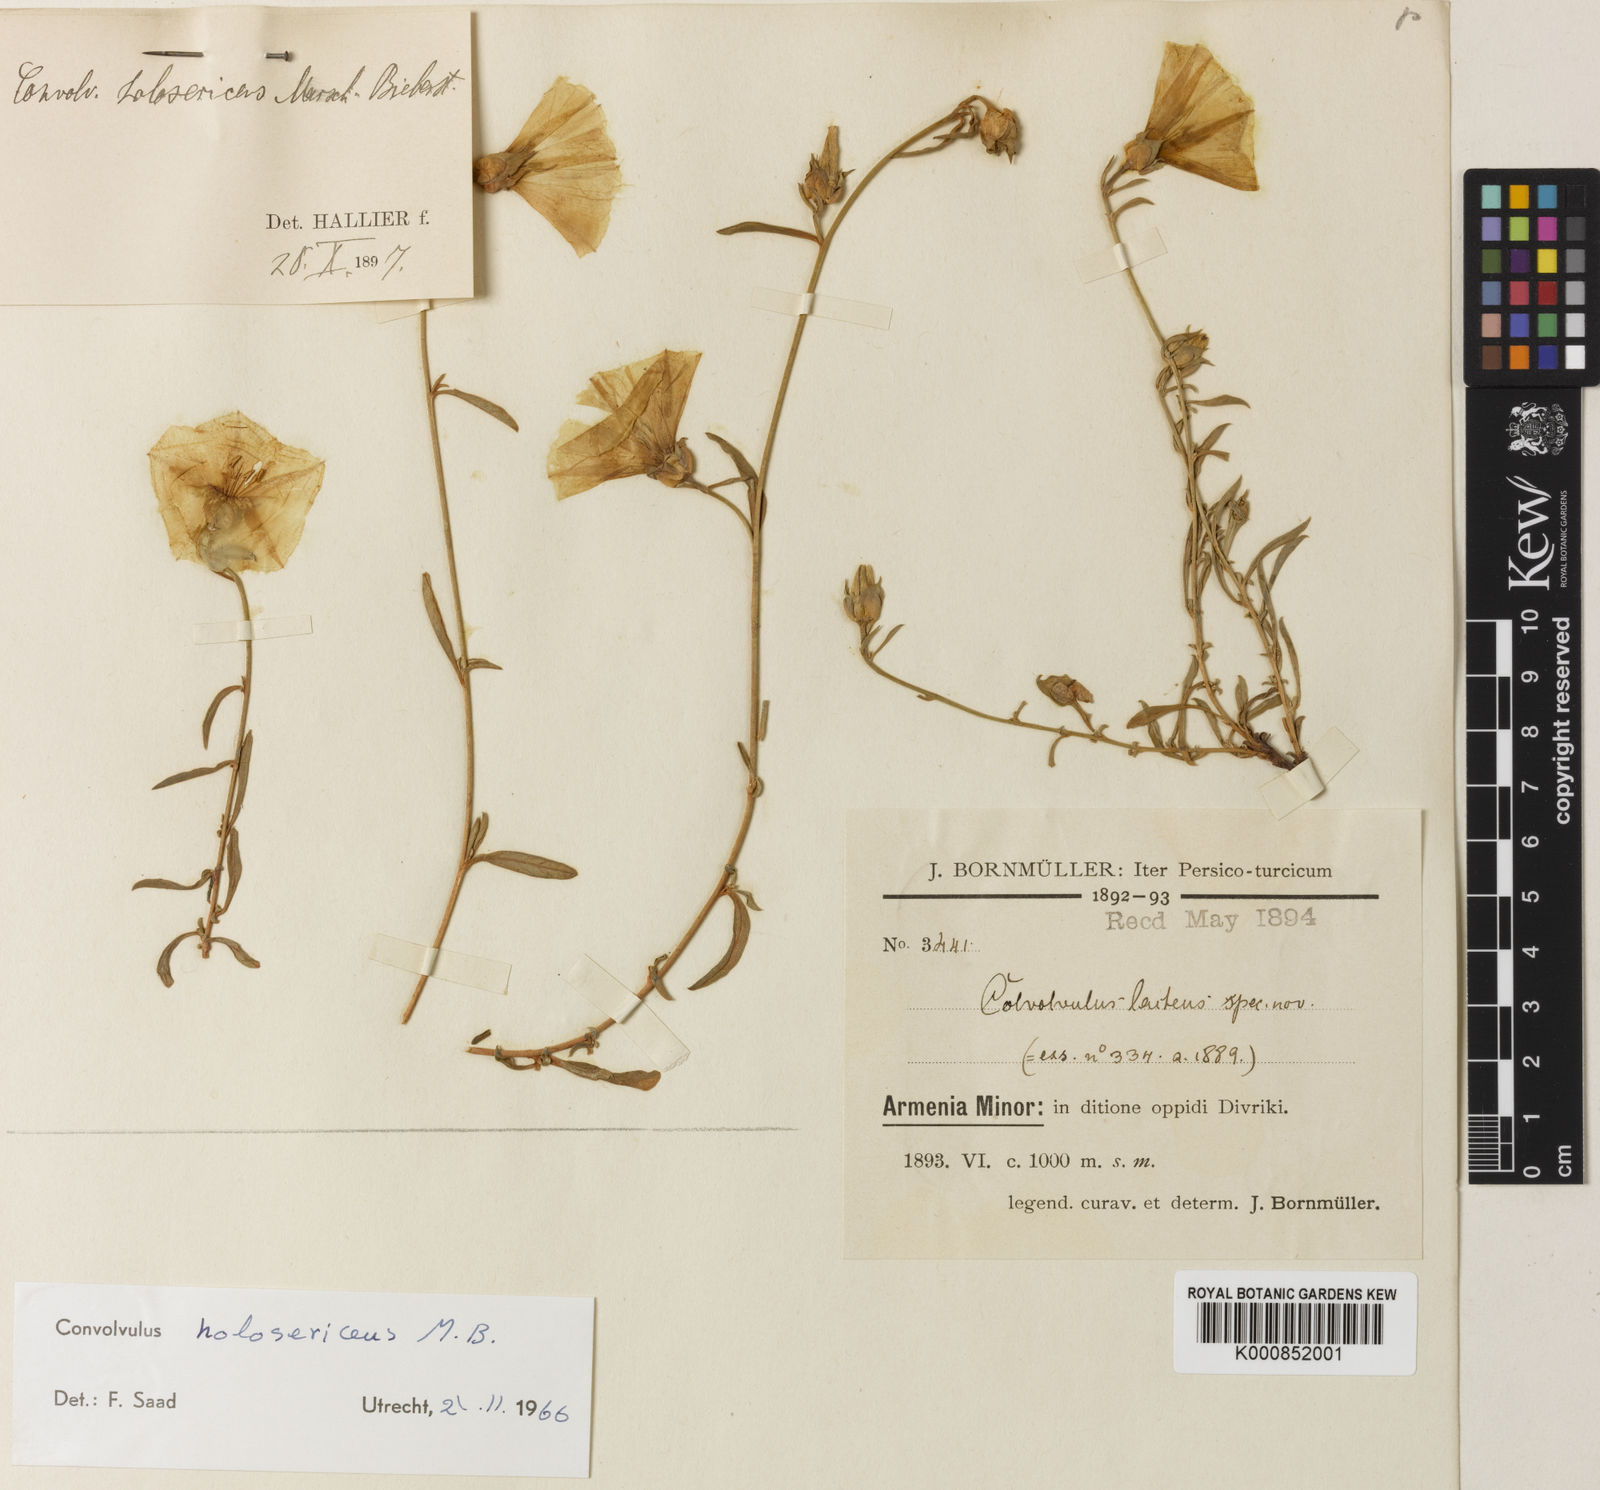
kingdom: Plantae
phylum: Tracheophyta
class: Magnoliopsida
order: Solanales
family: Convolvulaceae
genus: Convolvulus
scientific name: Convolvulus holosericeus
